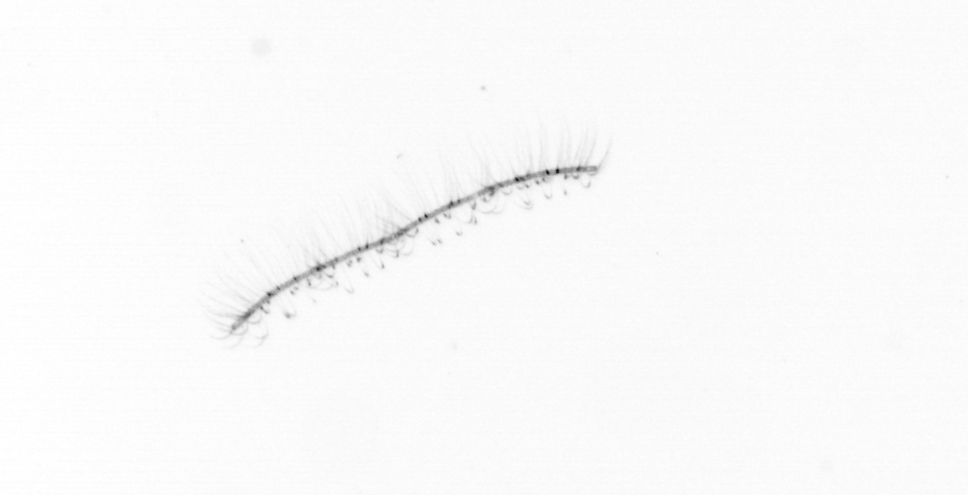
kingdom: Chromista
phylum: Ochrophyta
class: Bacillariophyceae
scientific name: Bacillariophyceae
